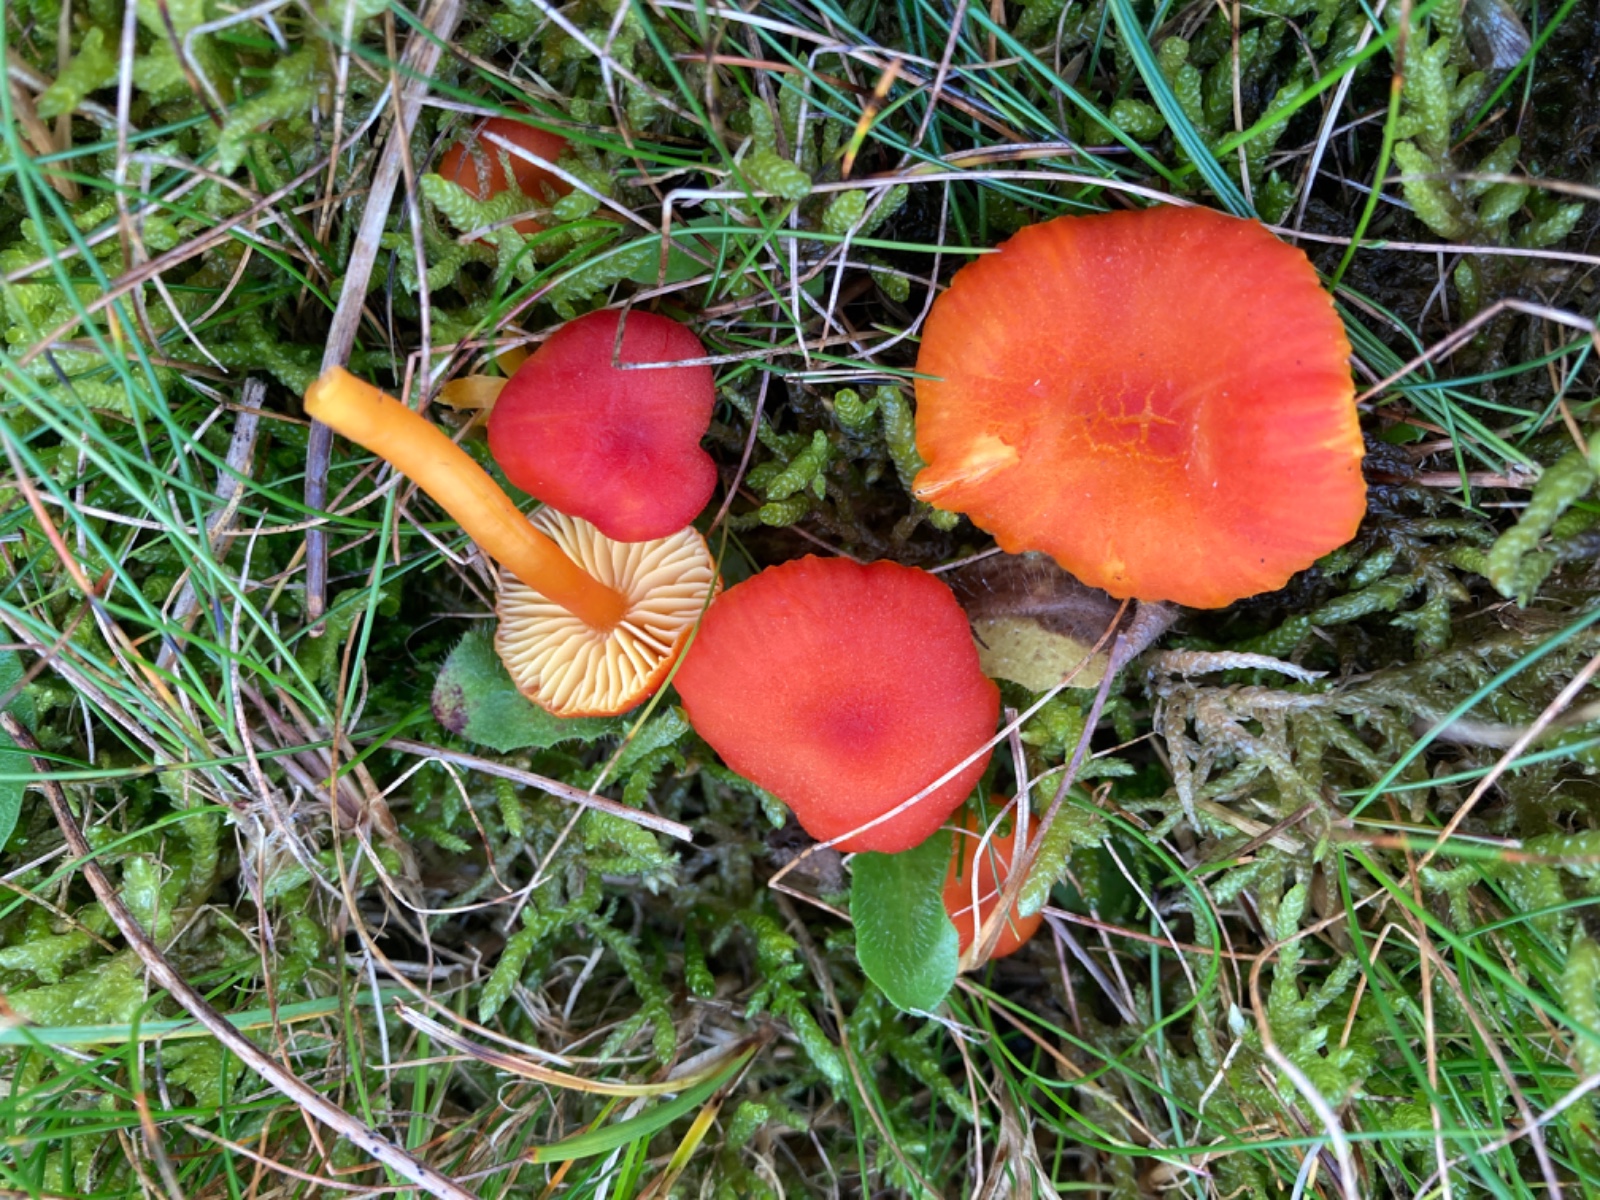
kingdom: Fungi
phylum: Basidiomycota
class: Agaricomycetes
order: Agaricales
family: Hygrophoraceae
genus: Hygrocybe
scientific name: Hygrocybe miniata
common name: mønje-vokshat
